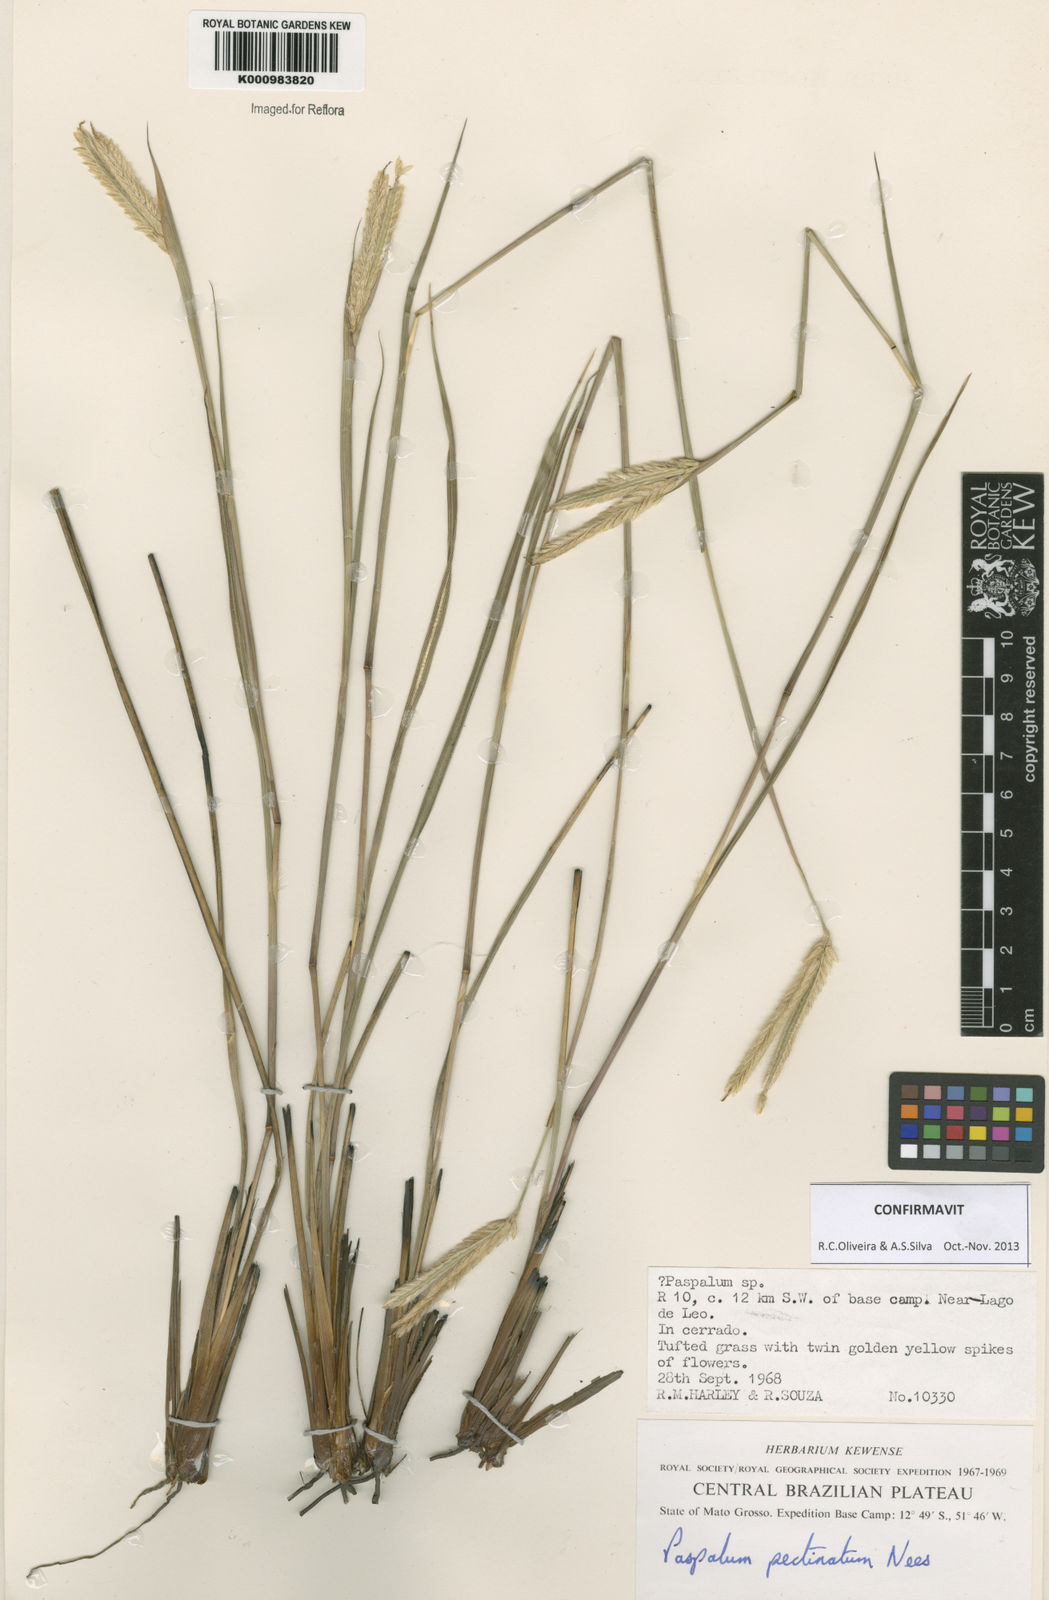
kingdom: Plantae
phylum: Tracheophyta
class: Liliopsida
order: Poales
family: Poaceae
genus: Paspalum
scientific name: Paspalum
